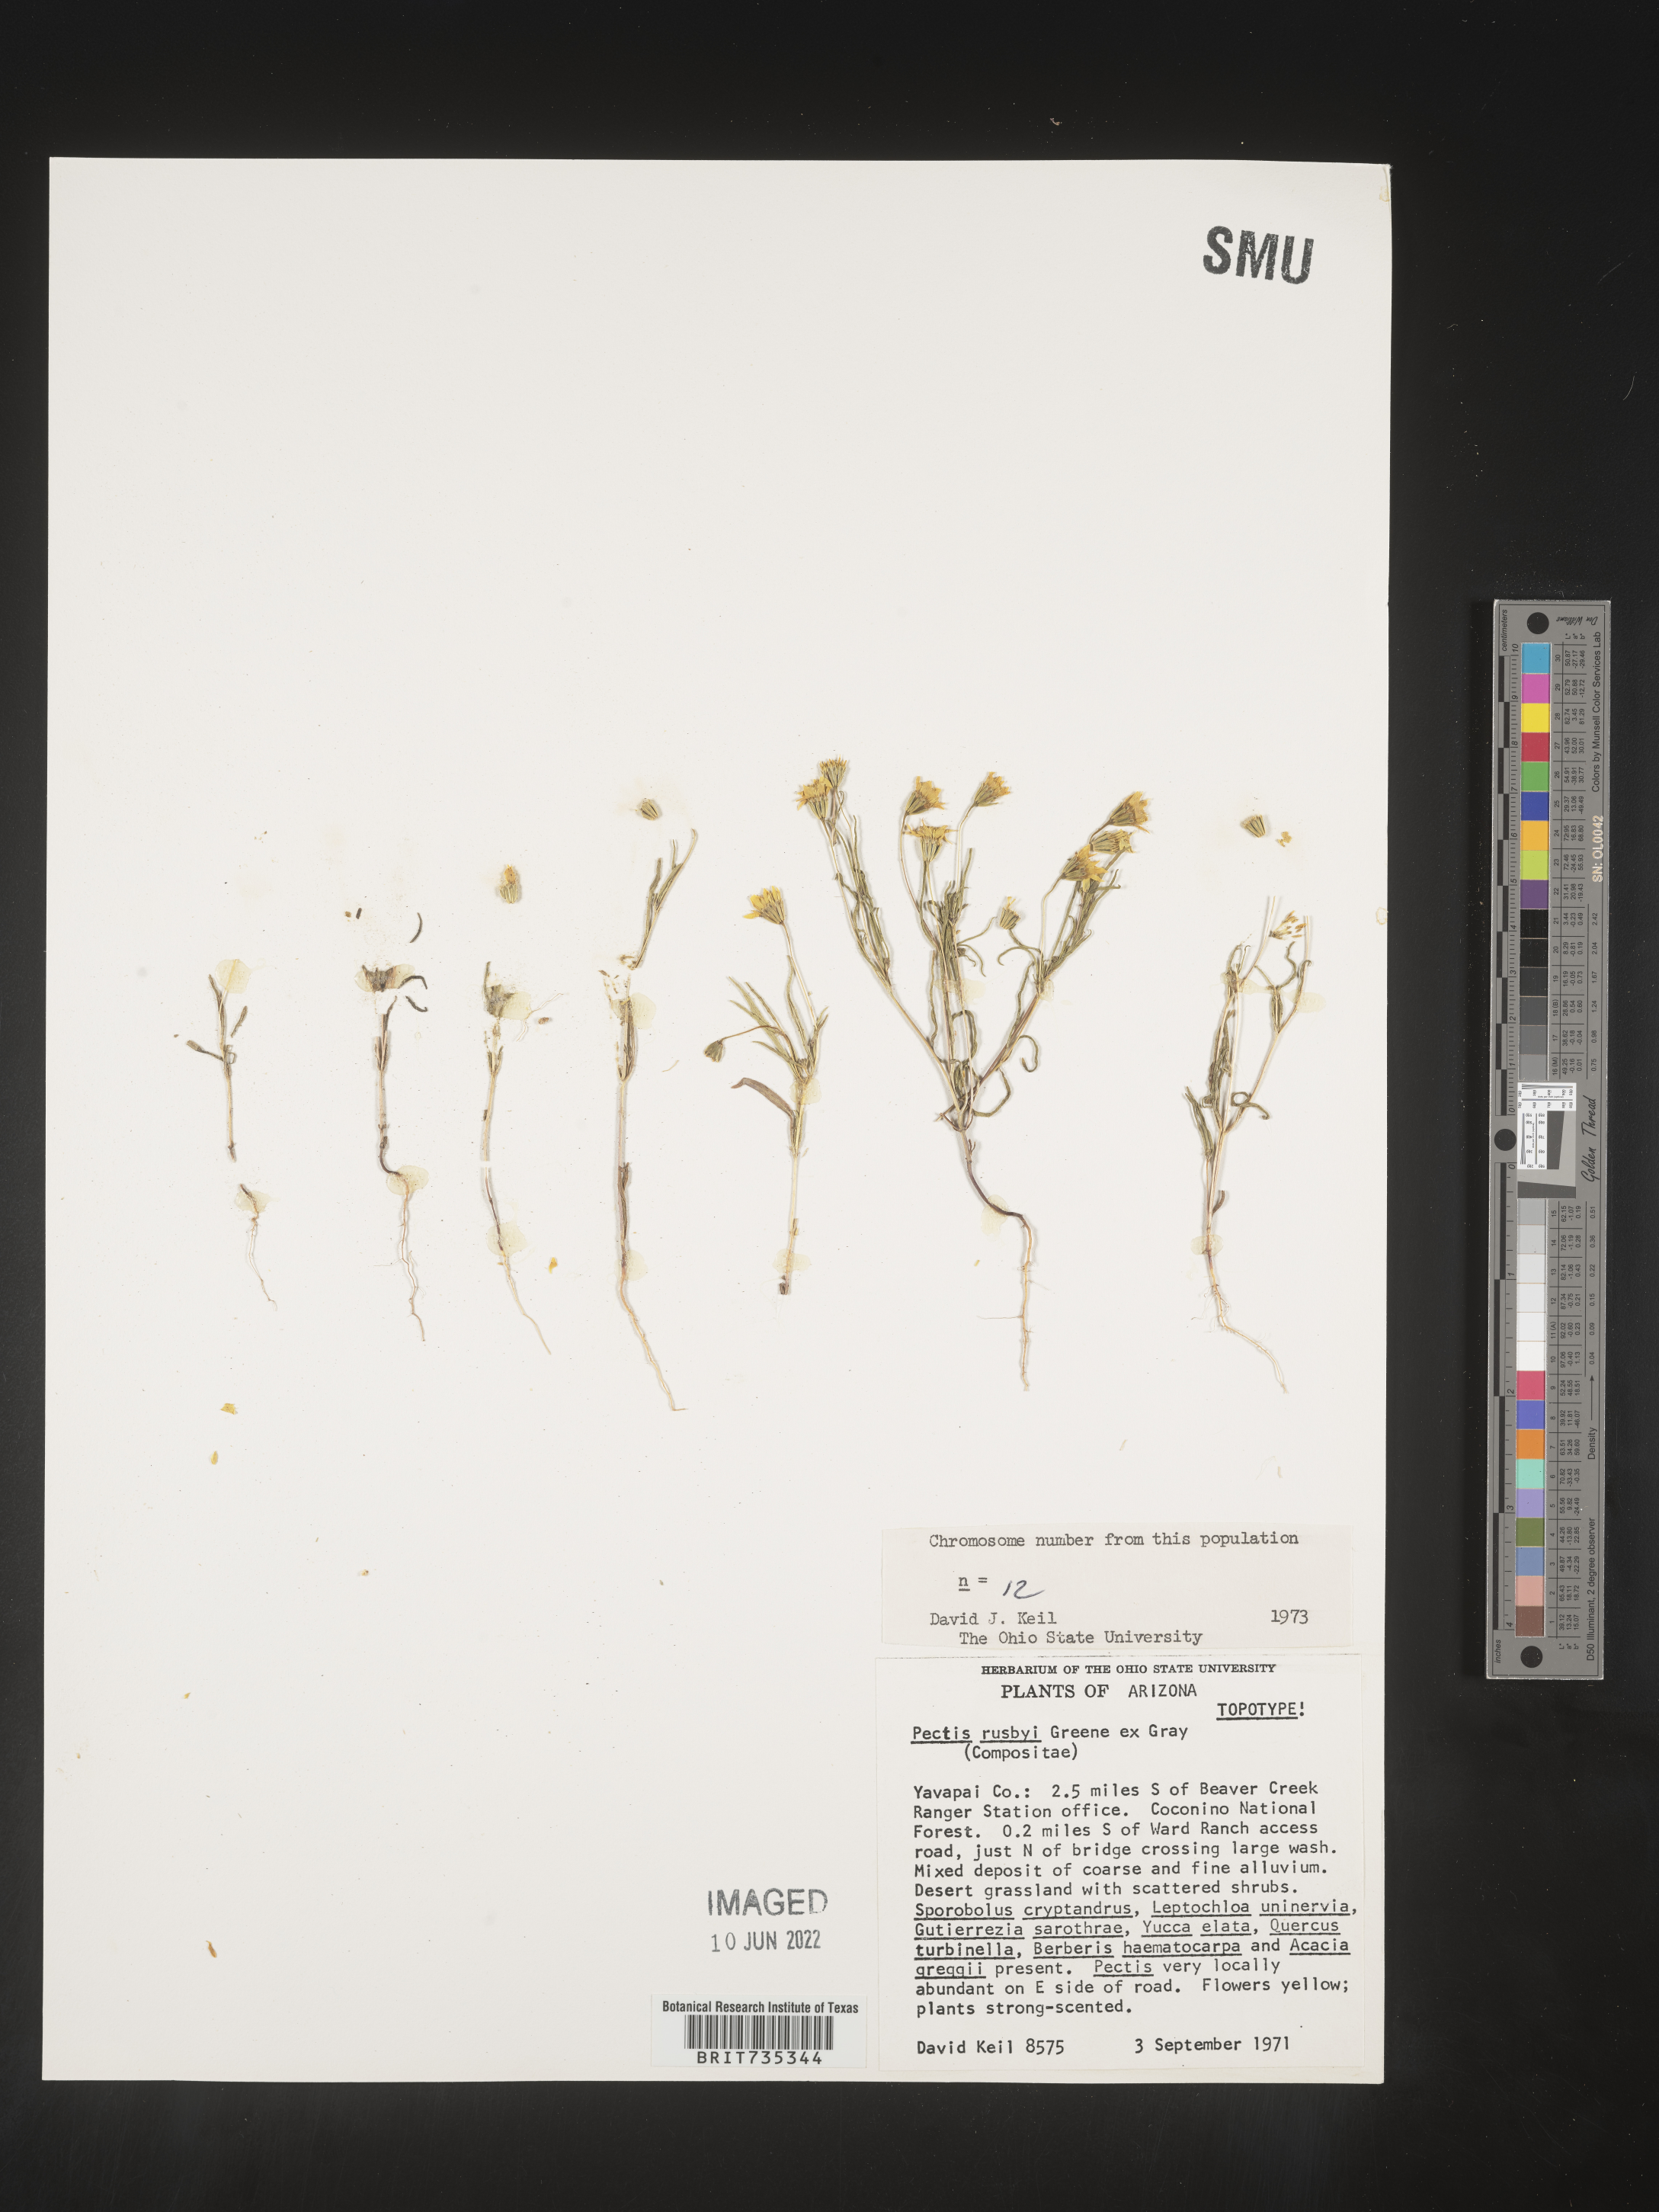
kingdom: Plantae
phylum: Tracheophyta
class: Magnoliopsida
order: Asterales
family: Asteraceae
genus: Pectis
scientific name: Pectis rusbyi
